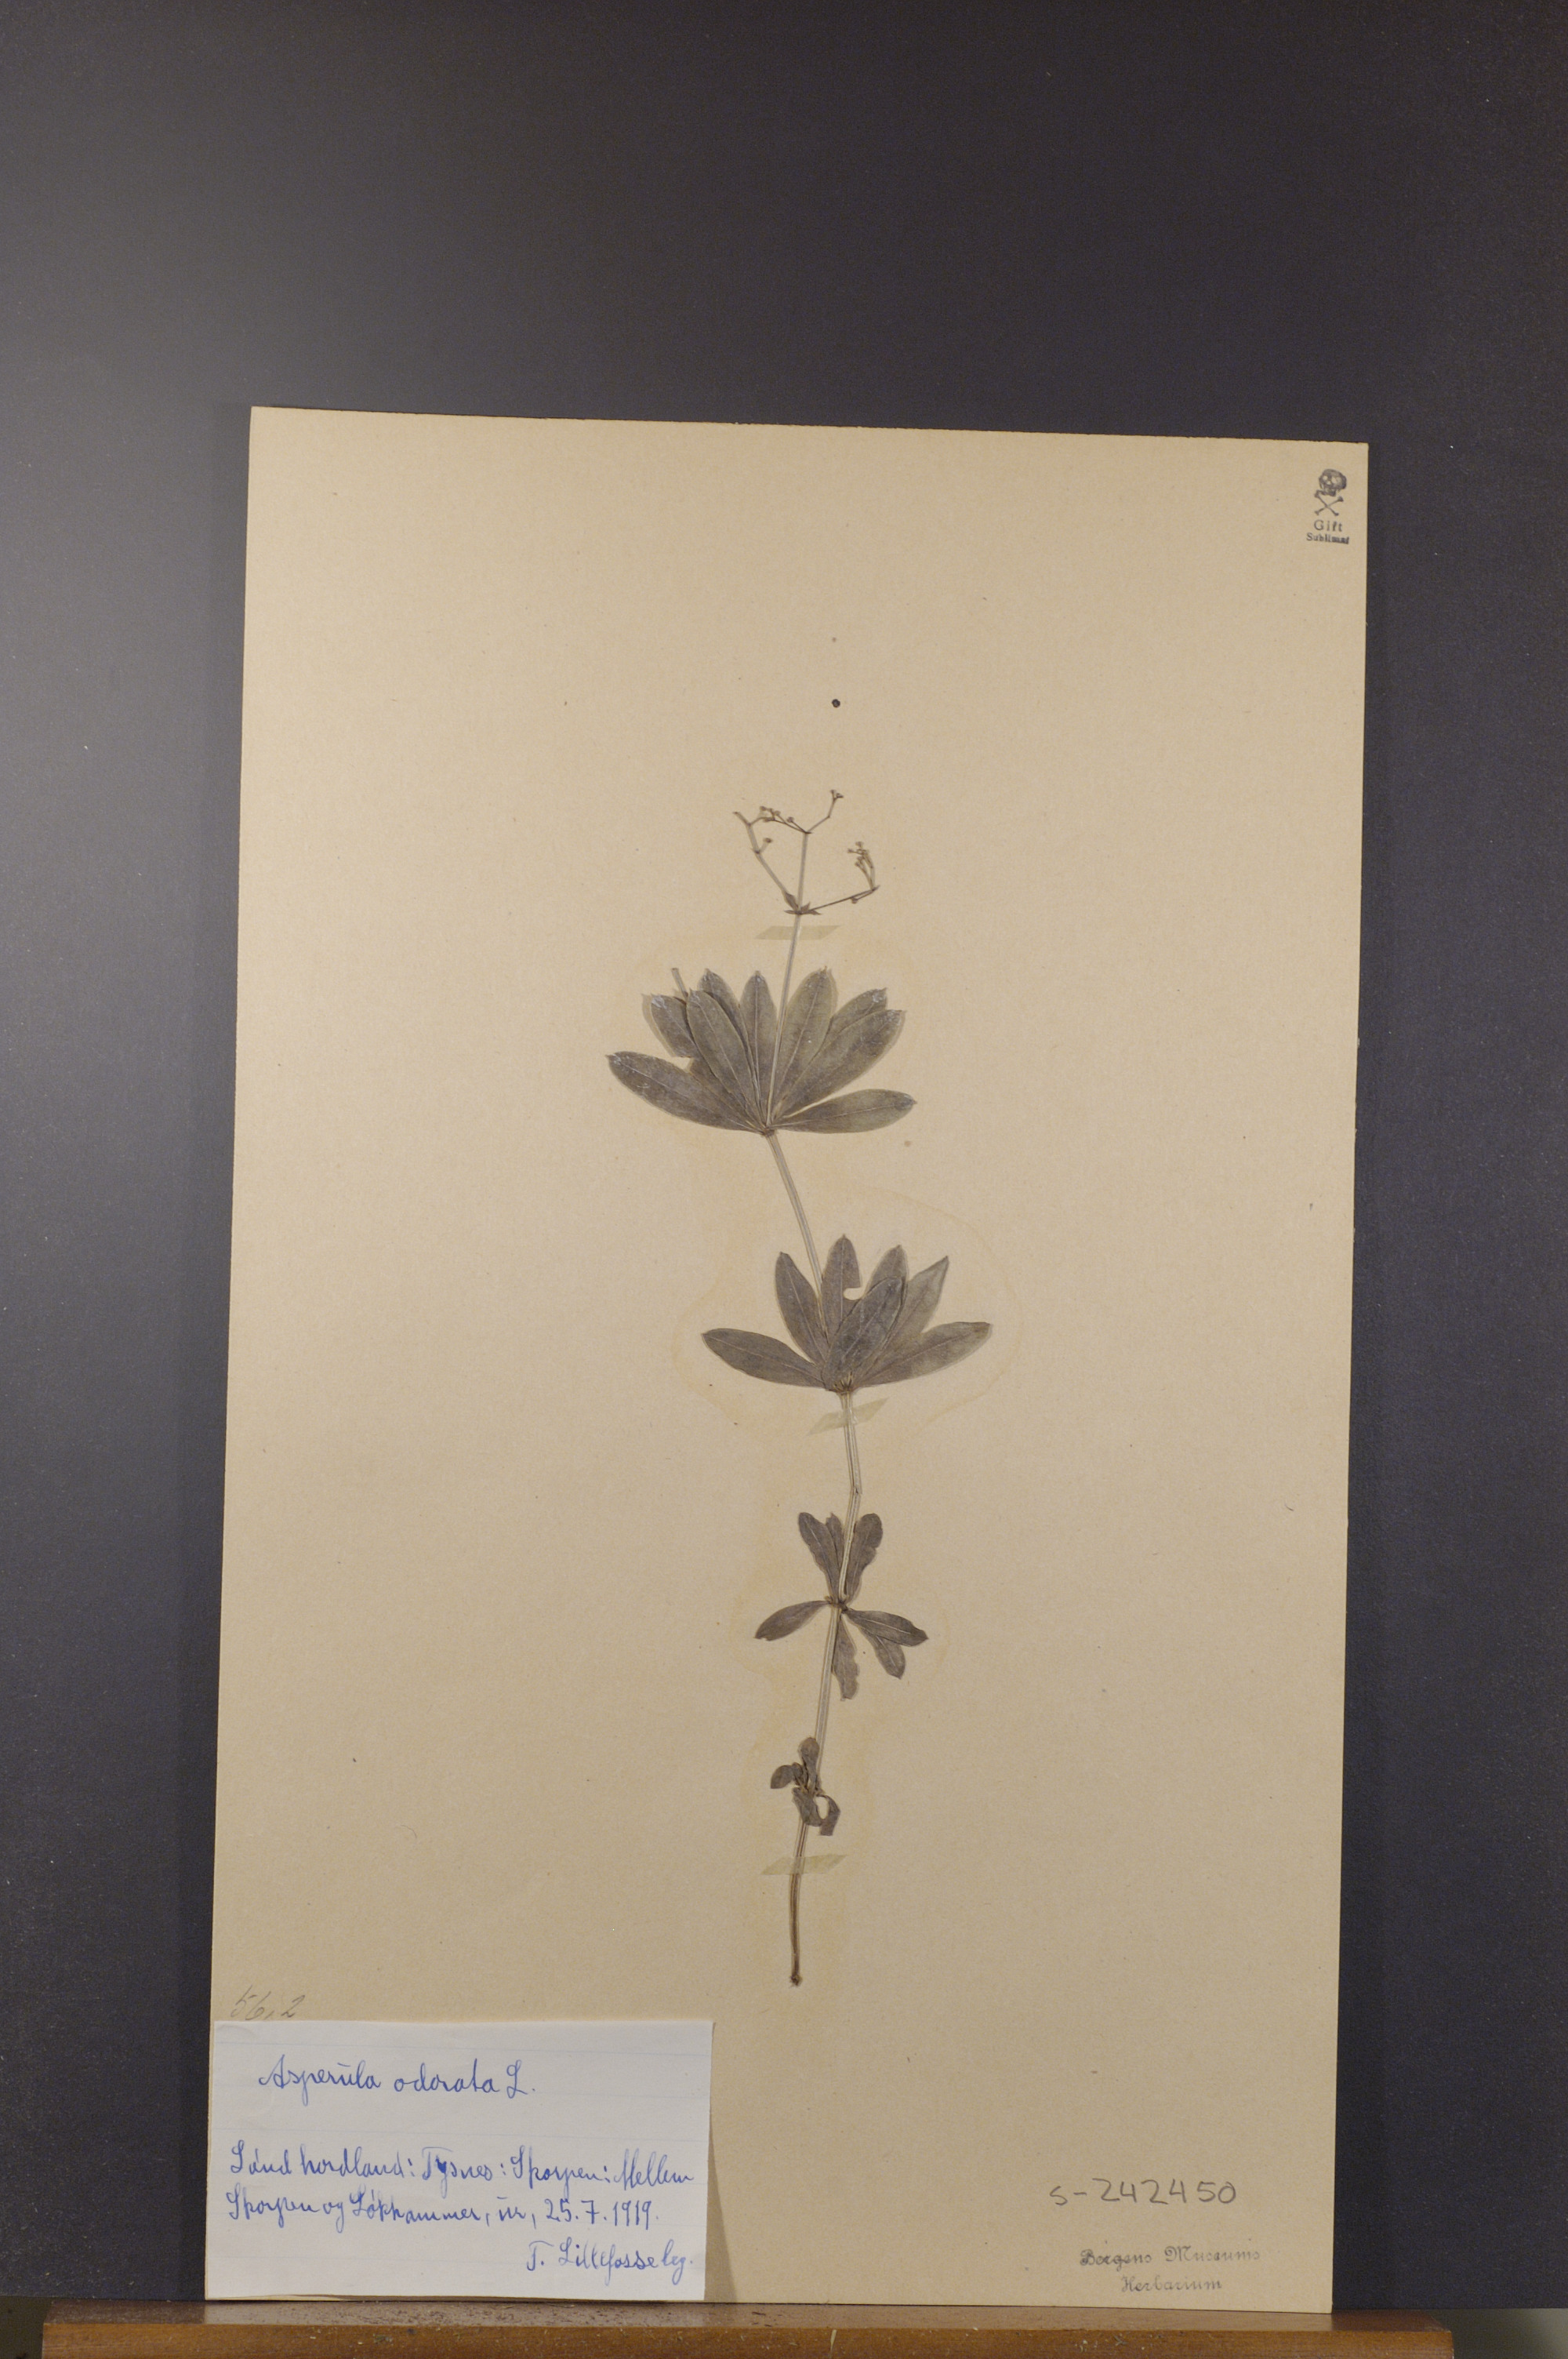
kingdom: Plantae
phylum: Tracheophyta
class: Magnoliopsida
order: Gentianales
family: Rubiaceae
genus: Galium
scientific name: Galium odoratum
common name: Sweet woodruff
